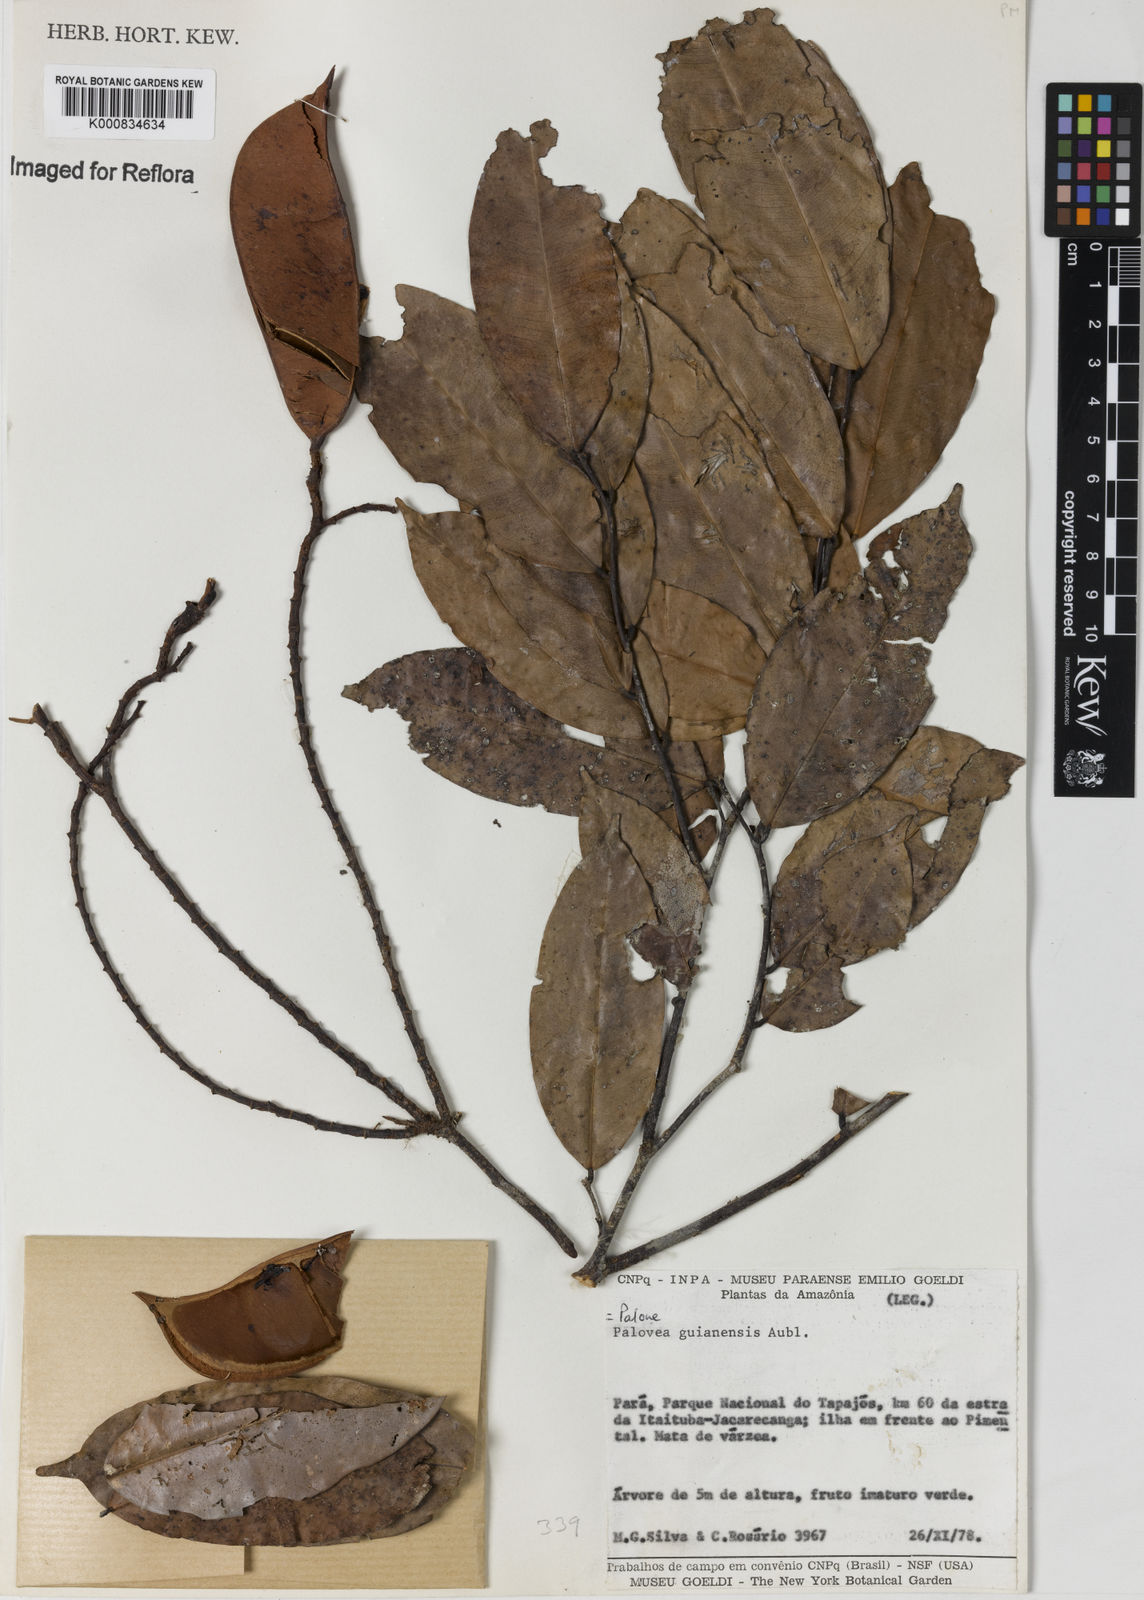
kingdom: Plantae
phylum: Tracheophyta
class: Magnoliopsida
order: Fabales
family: Fabaceae
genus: Paloue
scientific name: Paloue
